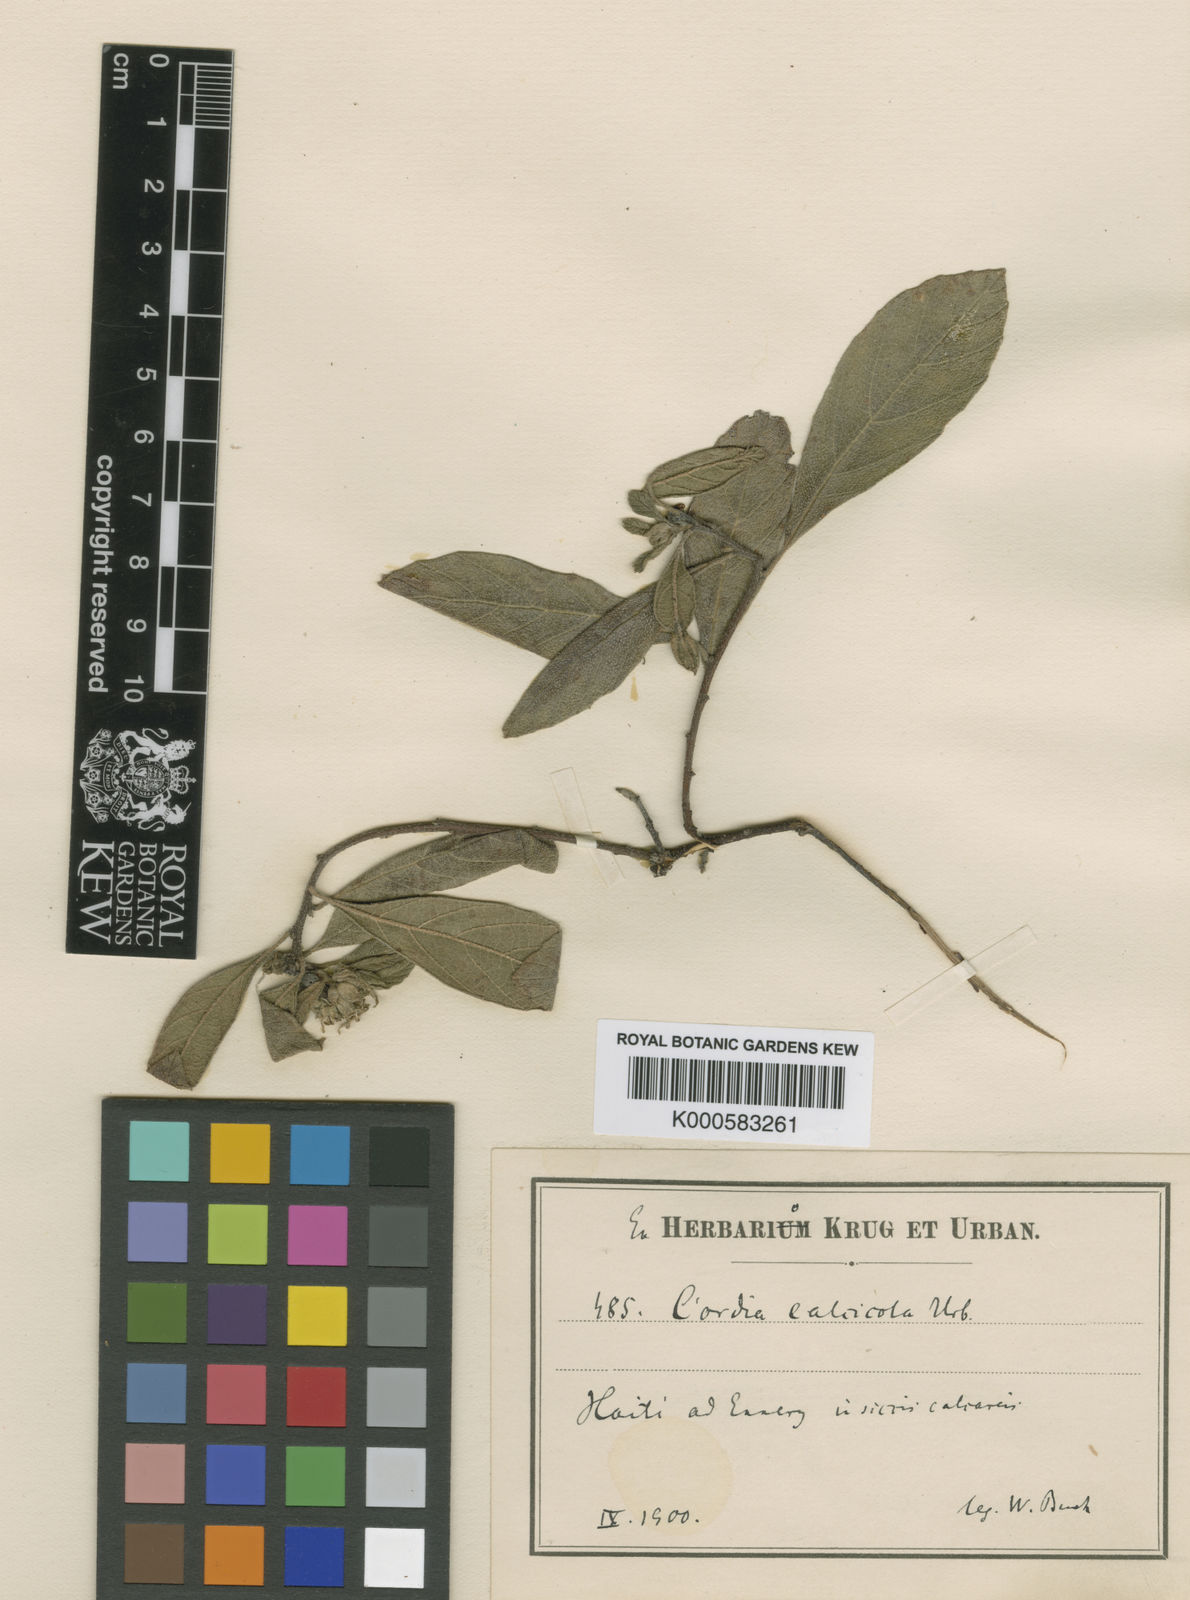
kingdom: Plantae
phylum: Tracheophyta
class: Magnoliopsida
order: Boraginales
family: Cordiaceae
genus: Varronia
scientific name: Varronia calcicola
